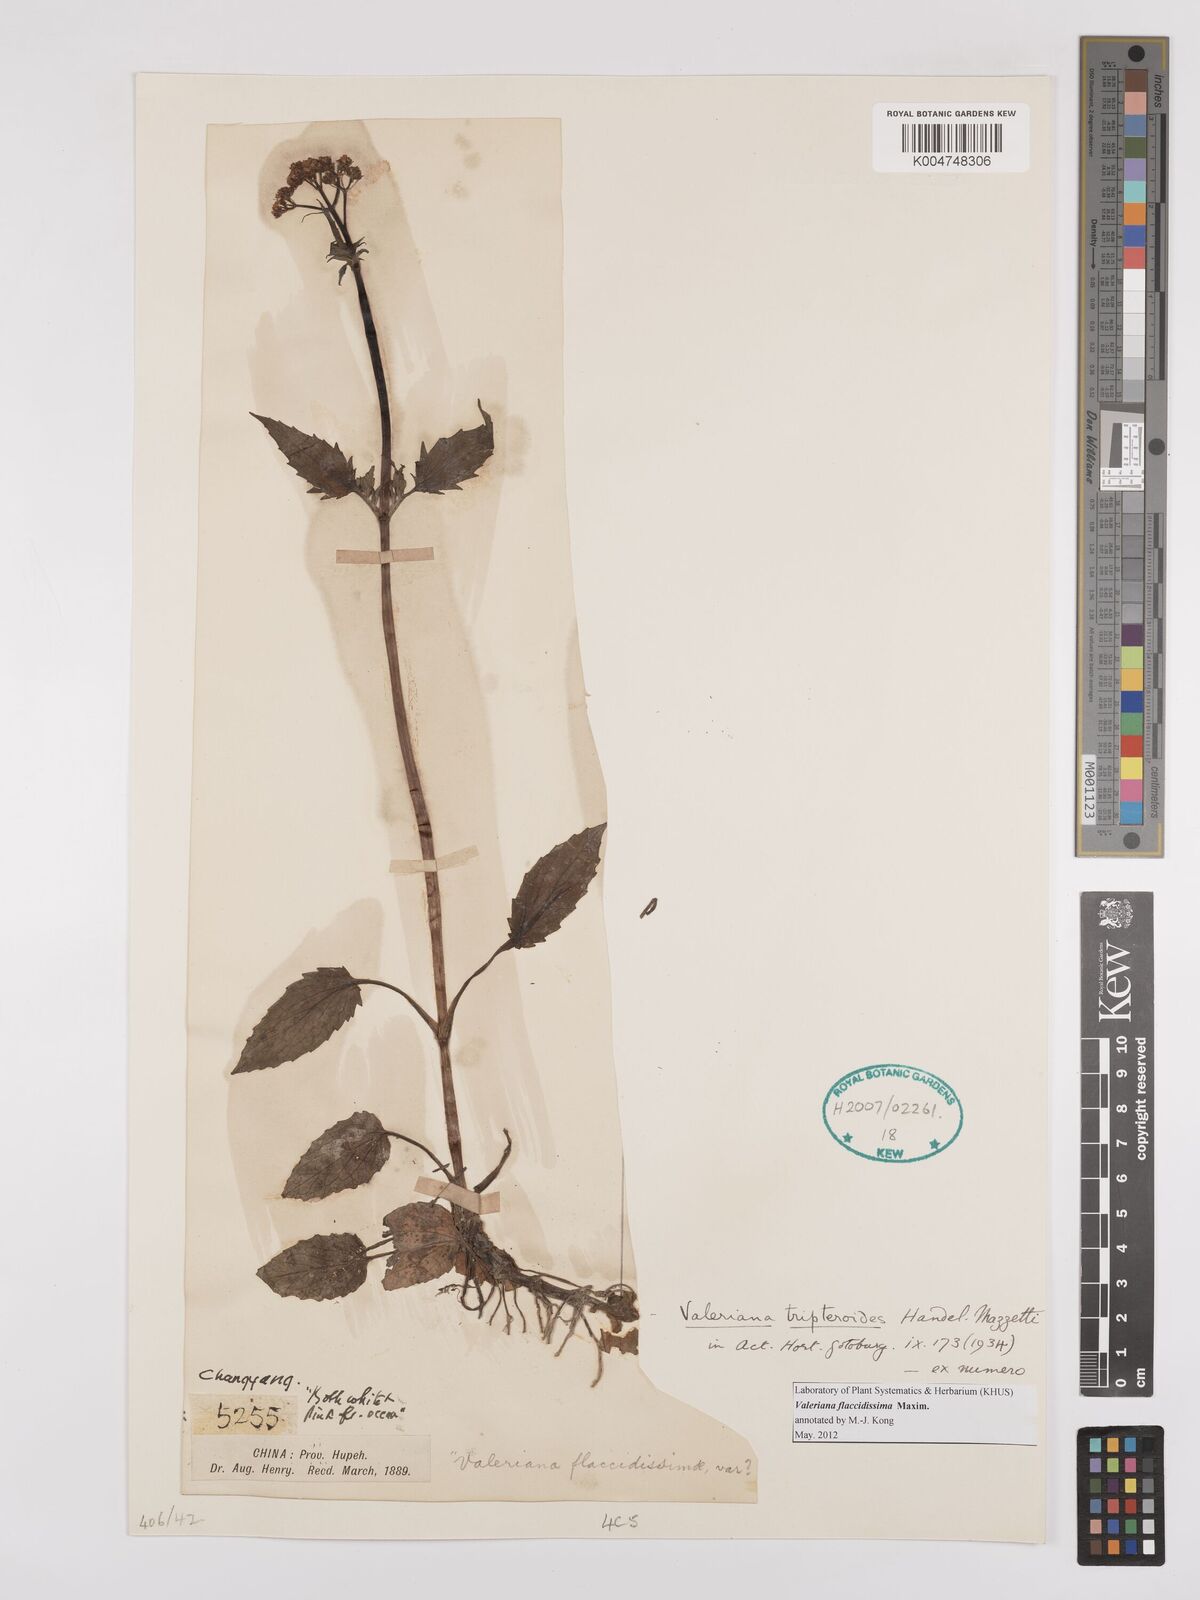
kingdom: Plantae
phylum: Tracheophyta
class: Magnoliopsida
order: Dipsacales
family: Caprifoliaceae
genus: Valeriana
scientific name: Valeriana flaccidissima
